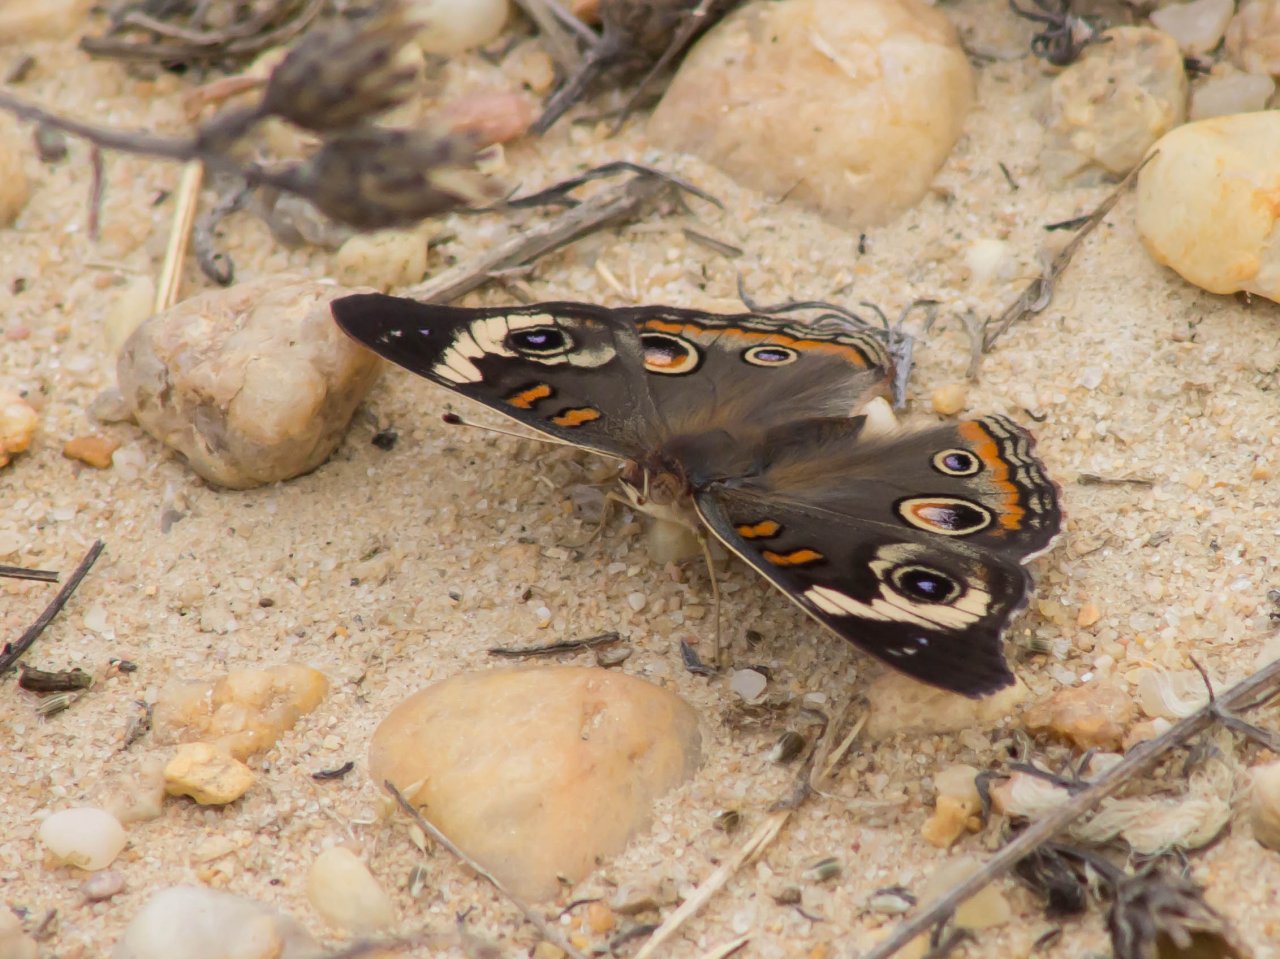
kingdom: Animalia
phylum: Arthropoda
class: Insecta
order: Lepidoptera
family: Nymphalidae
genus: Junonia
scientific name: Junonia coenia
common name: Common Buckeye
